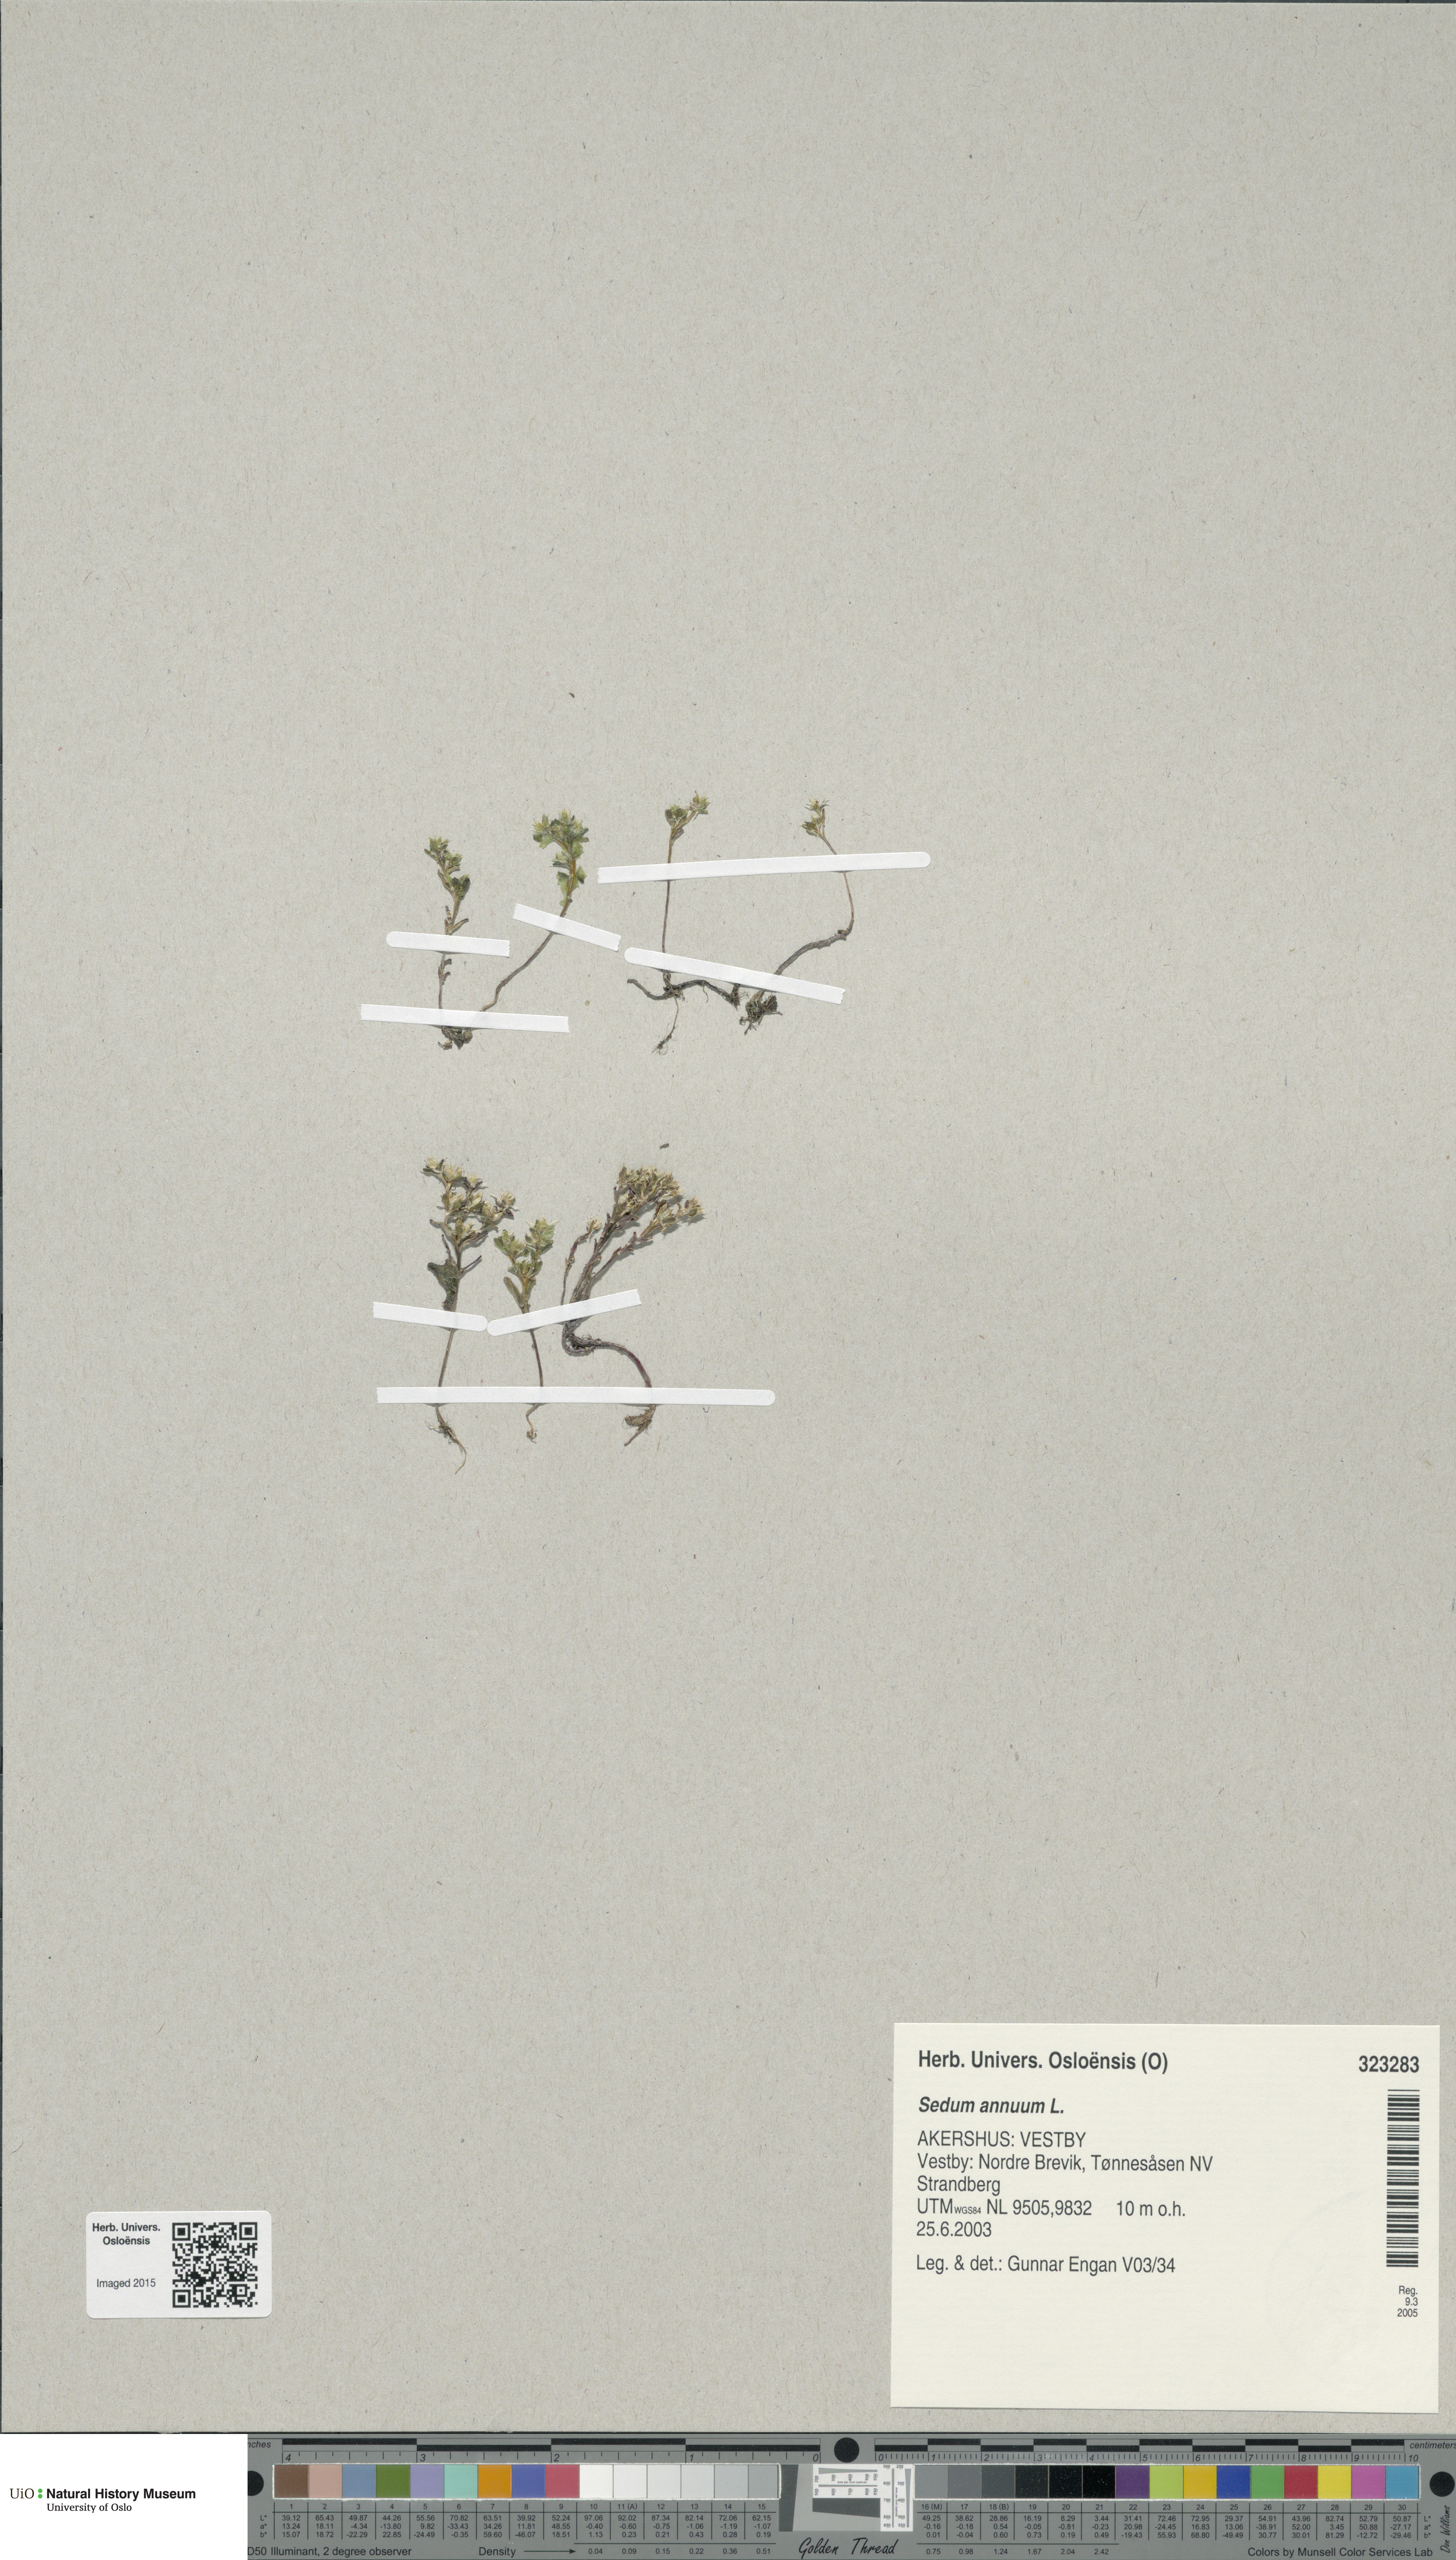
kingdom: Plantae
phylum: Tracheophyta
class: Magnoliopsida
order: Saxifragales
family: Crassulaceae
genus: Sedum
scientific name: Sedum annuum
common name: Annual stonecrop
